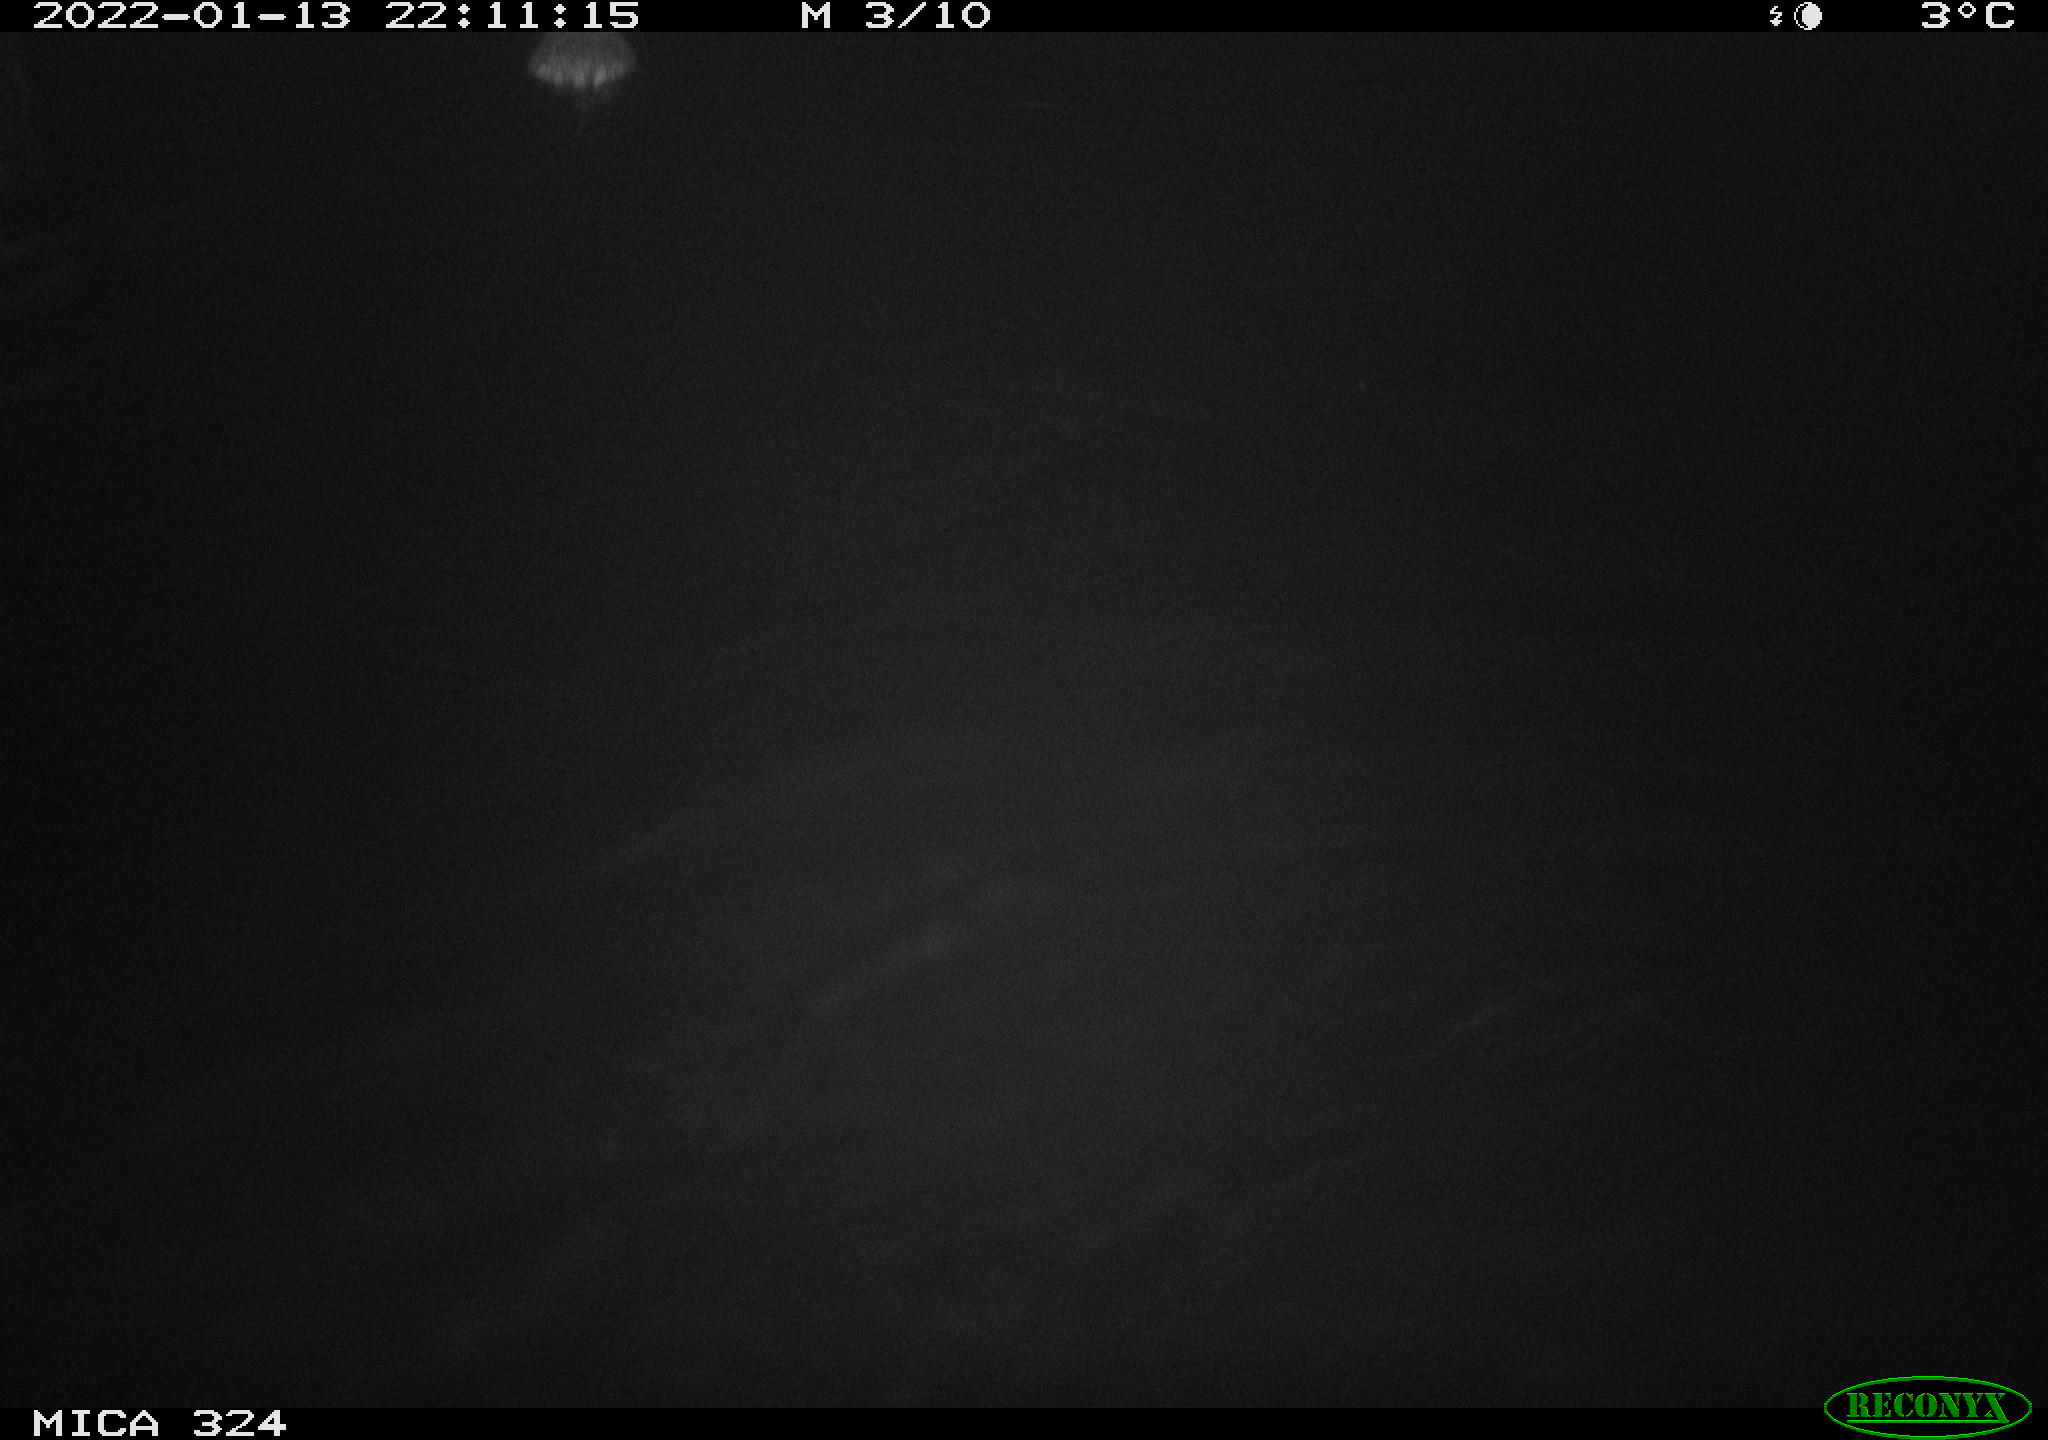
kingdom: Animalia
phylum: Chordata
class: Mammalia
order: Rodentia
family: Cricetidae
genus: Ondatra
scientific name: Ondatra zibethicus
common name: Muskrat
